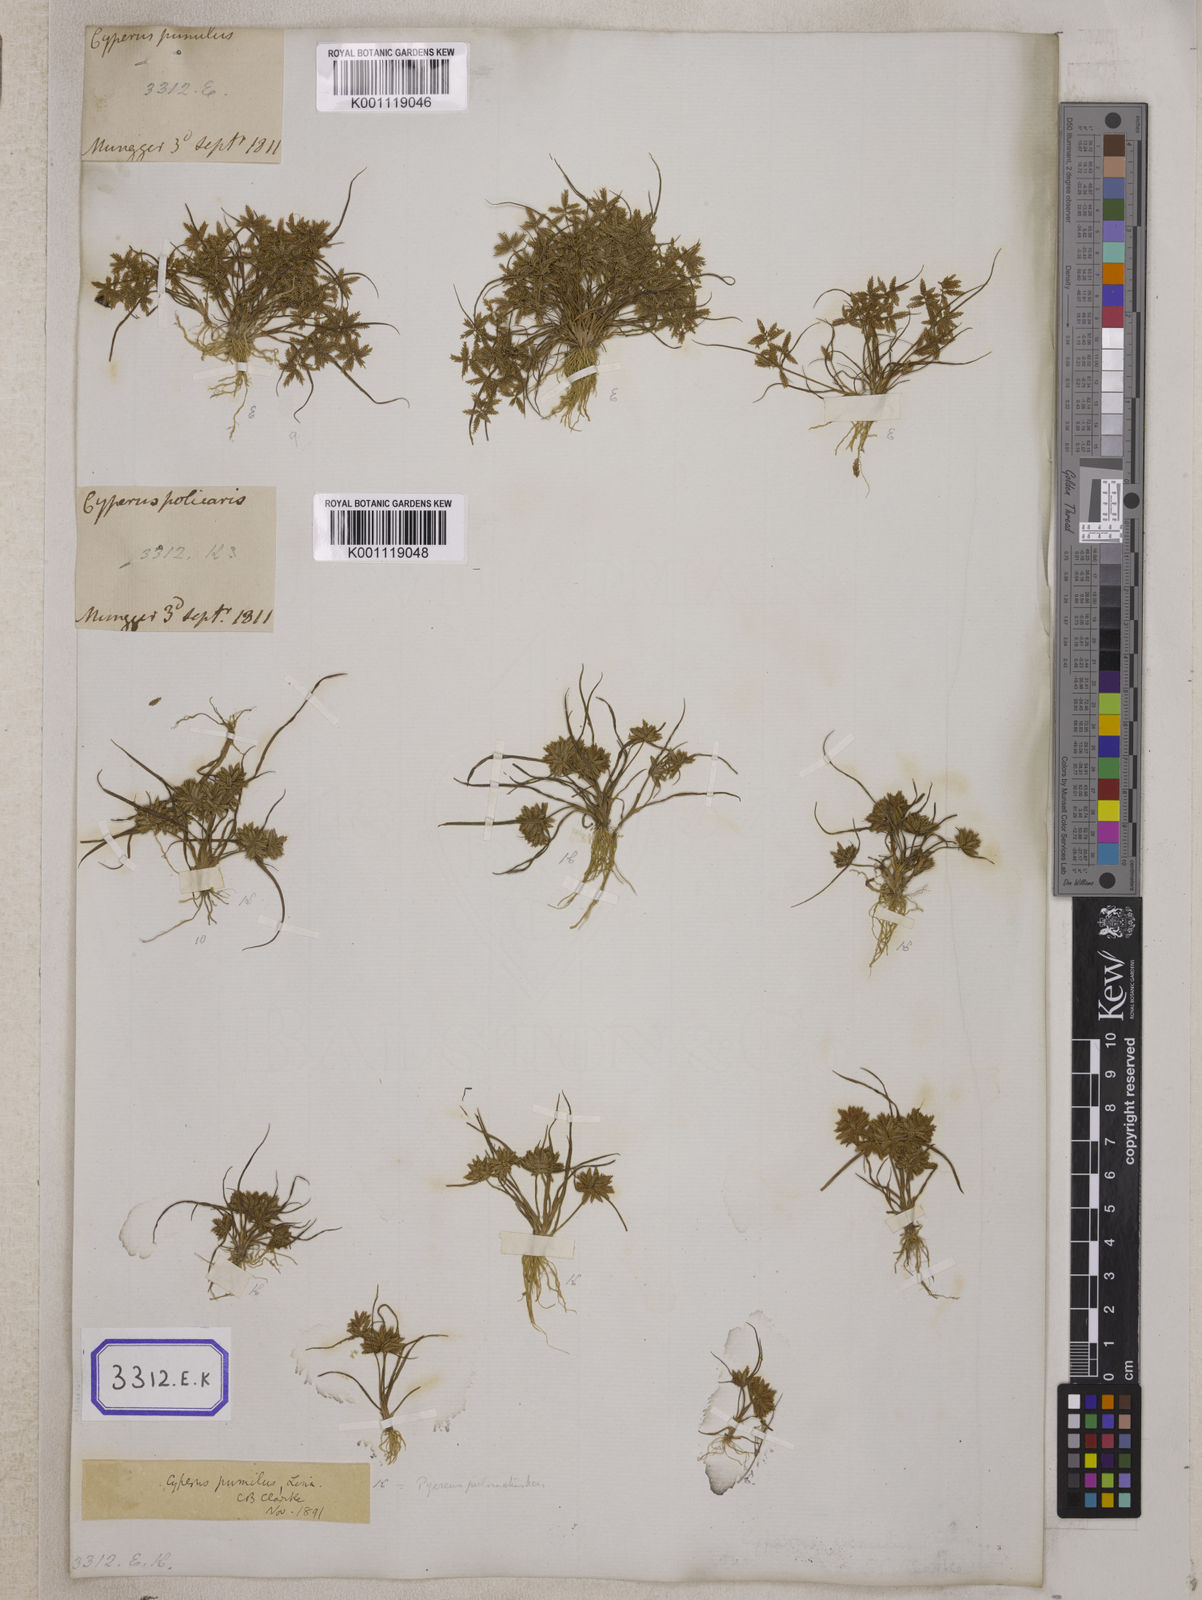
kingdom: Plantae
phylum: Tracheophyta
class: Liliopsida
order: Poales
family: Cyperaceae
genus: Cyperus
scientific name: Cyperus
